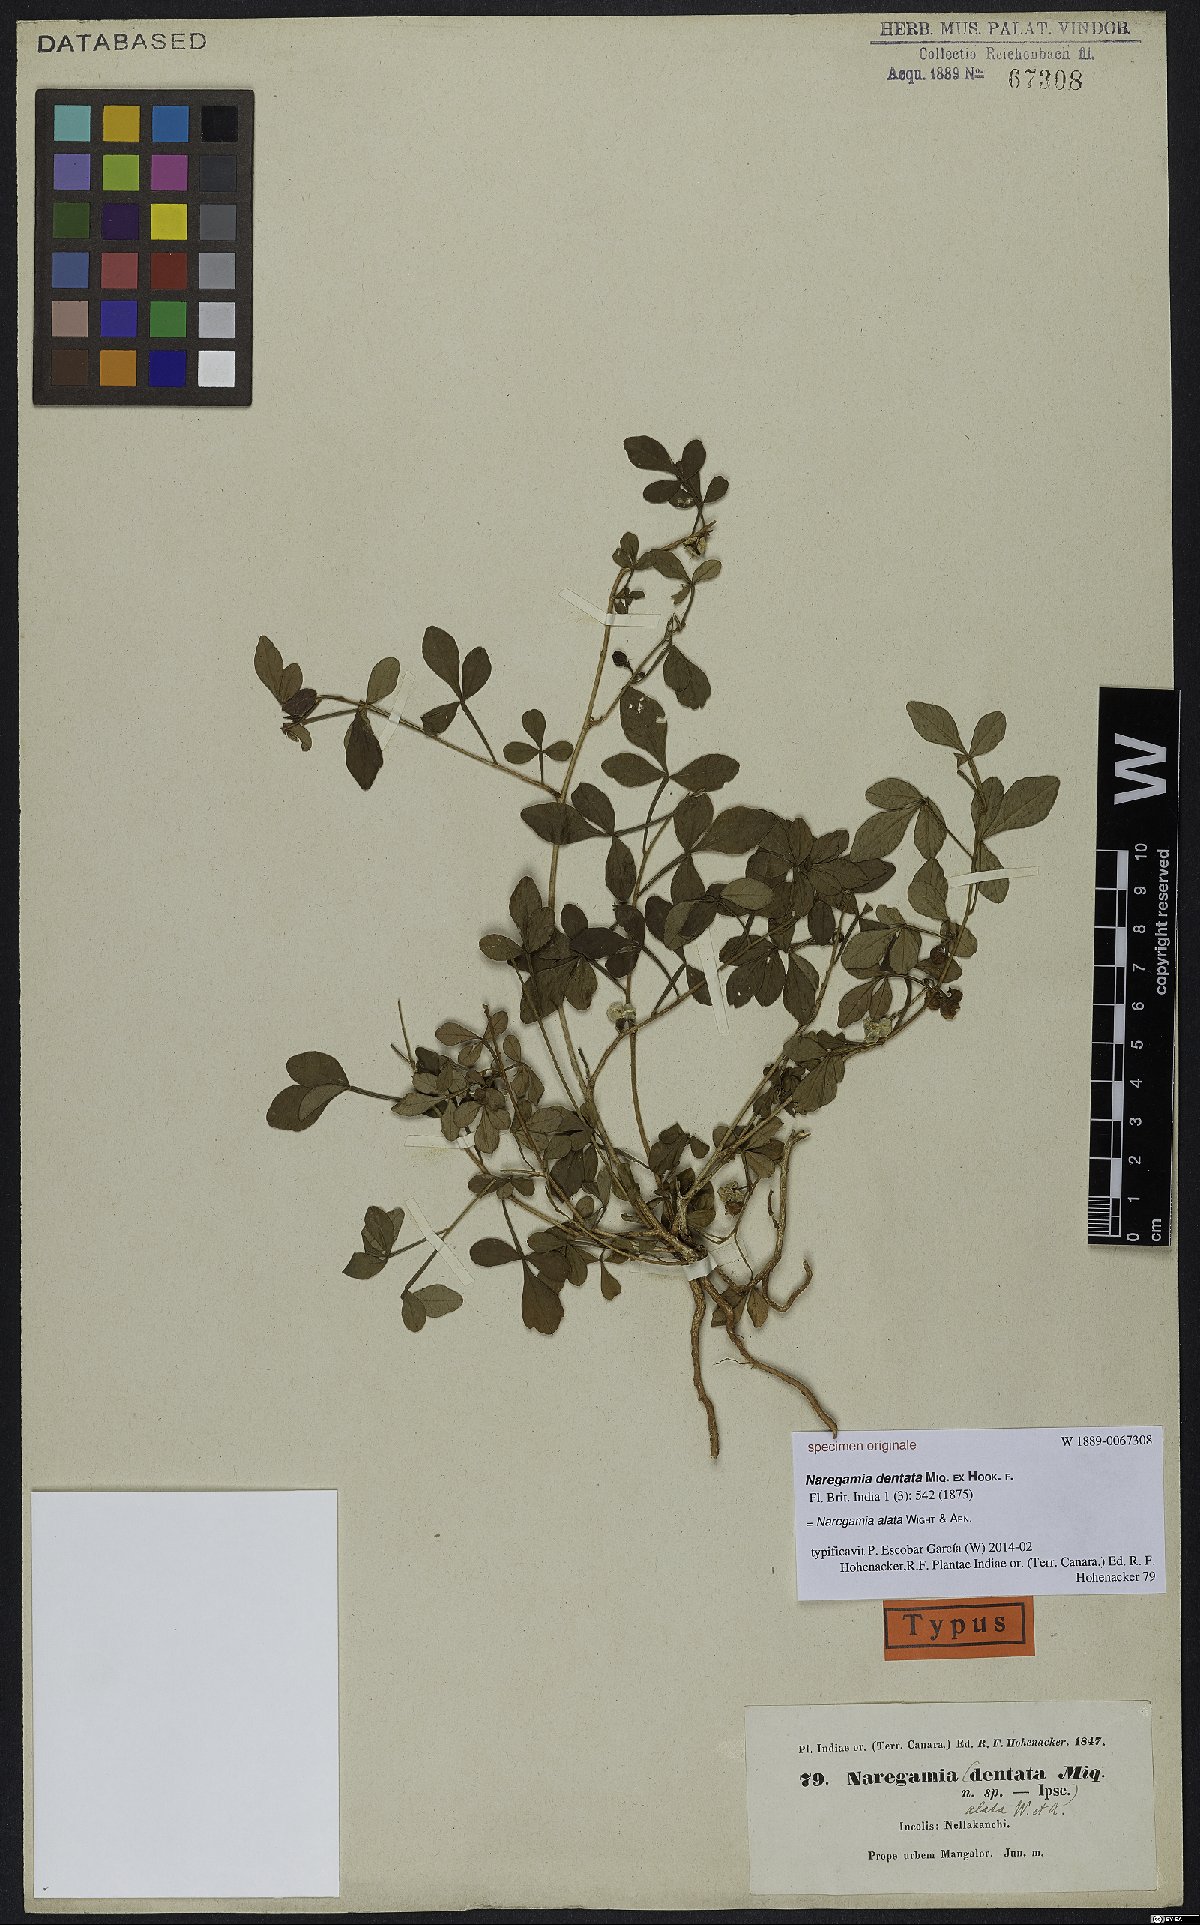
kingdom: Plantae
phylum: Tracheophyta
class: Magnoliopsida
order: Sapindales
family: Meliaceae
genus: Naregamia
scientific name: Naregamia alata
